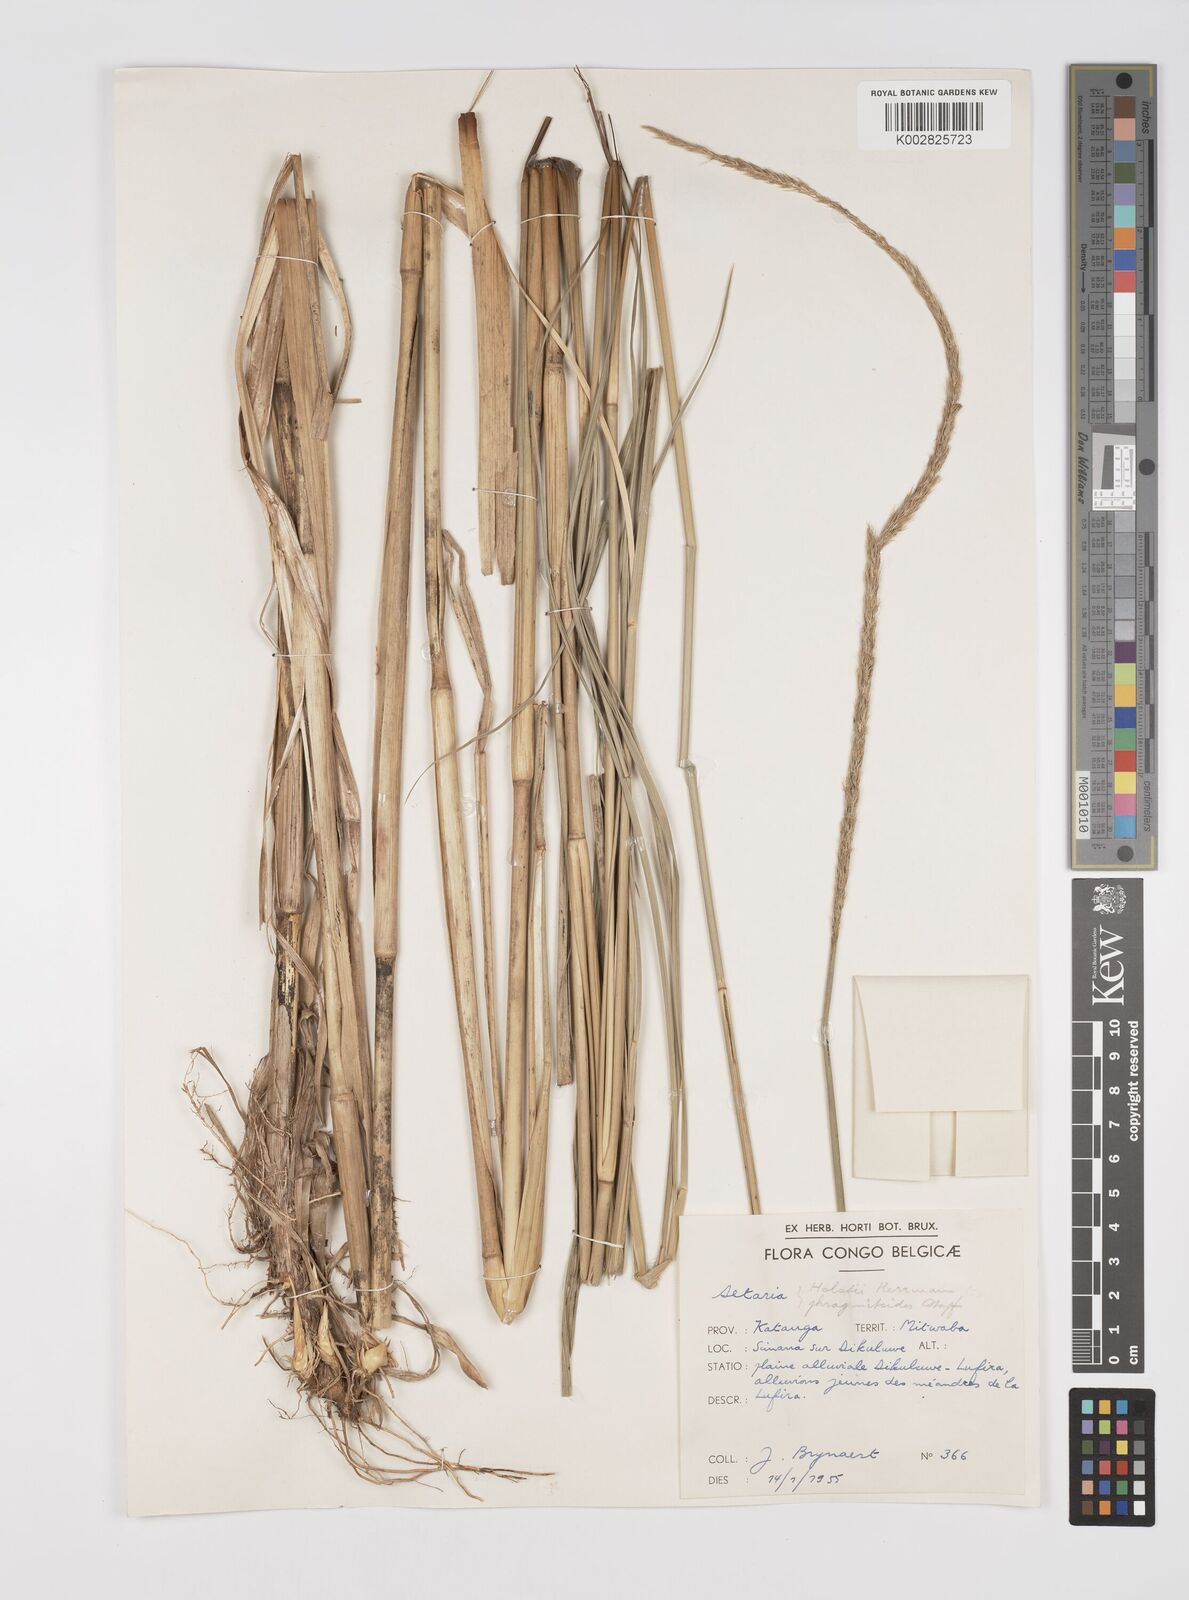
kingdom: Plantae
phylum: Tracheophyta
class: Liliopsida
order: Poales
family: Poaceae
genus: Setaria
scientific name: Setaria incrassata
